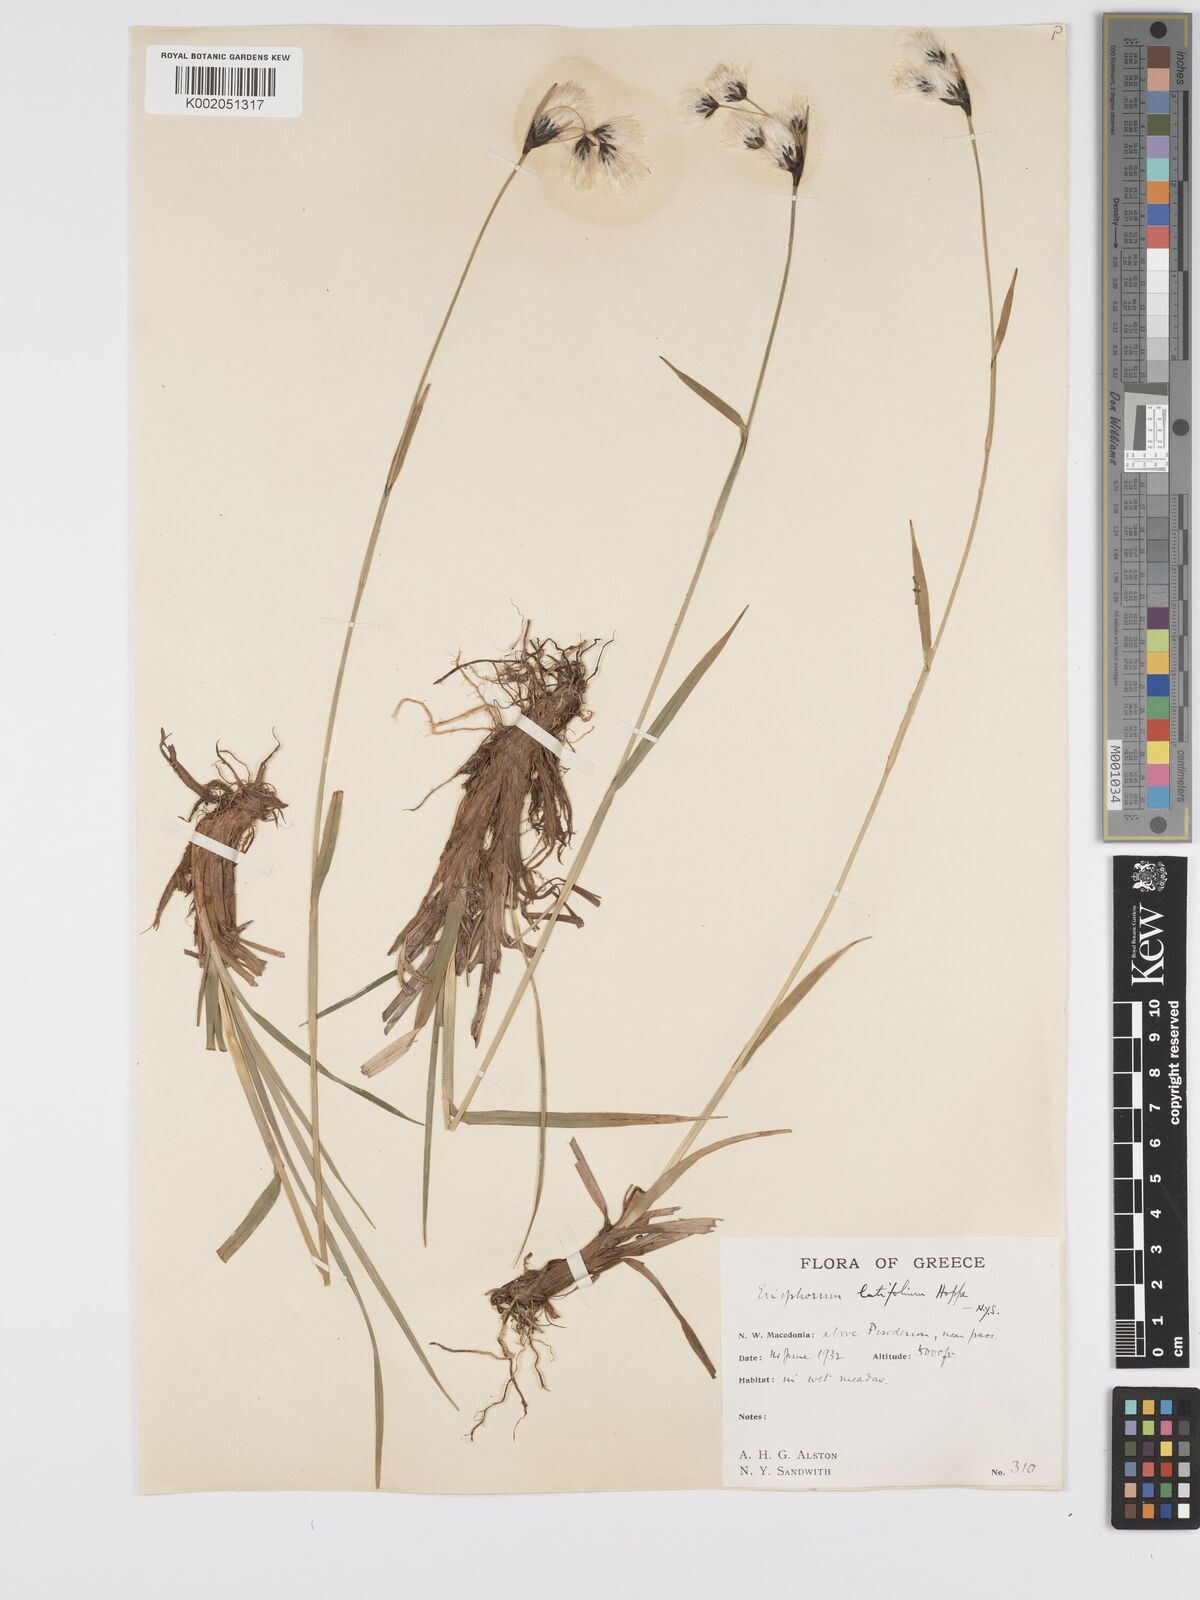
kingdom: Plantae
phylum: Tracheophyta
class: Liliopsida
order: Poales
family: Cyperaceae
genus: Eriophorum
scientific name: Eriophorum latifolium
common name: Broad-leaved cottongrass
